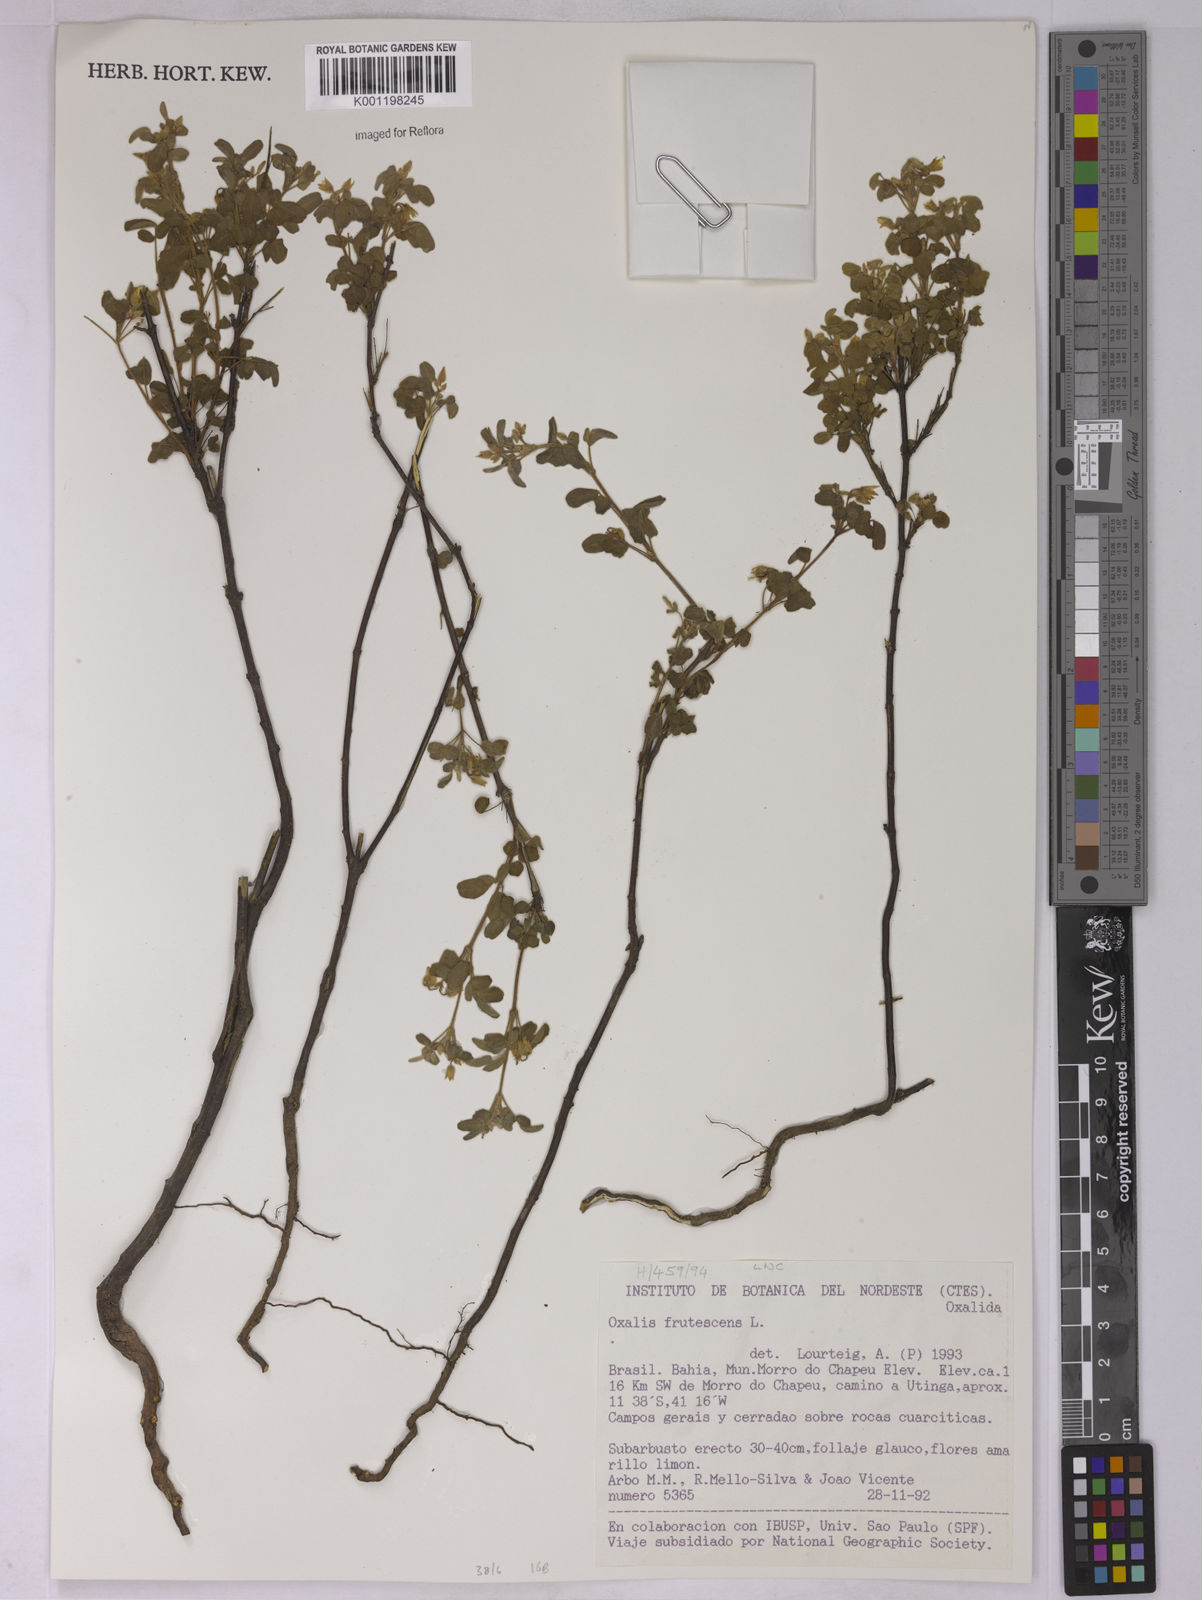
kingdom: Plantae
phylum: Tracheophyta
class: Magnoliopsida
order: Oxalidales
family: Oxalidaceae
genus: Oxalis
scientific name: Oxalis frutescens
